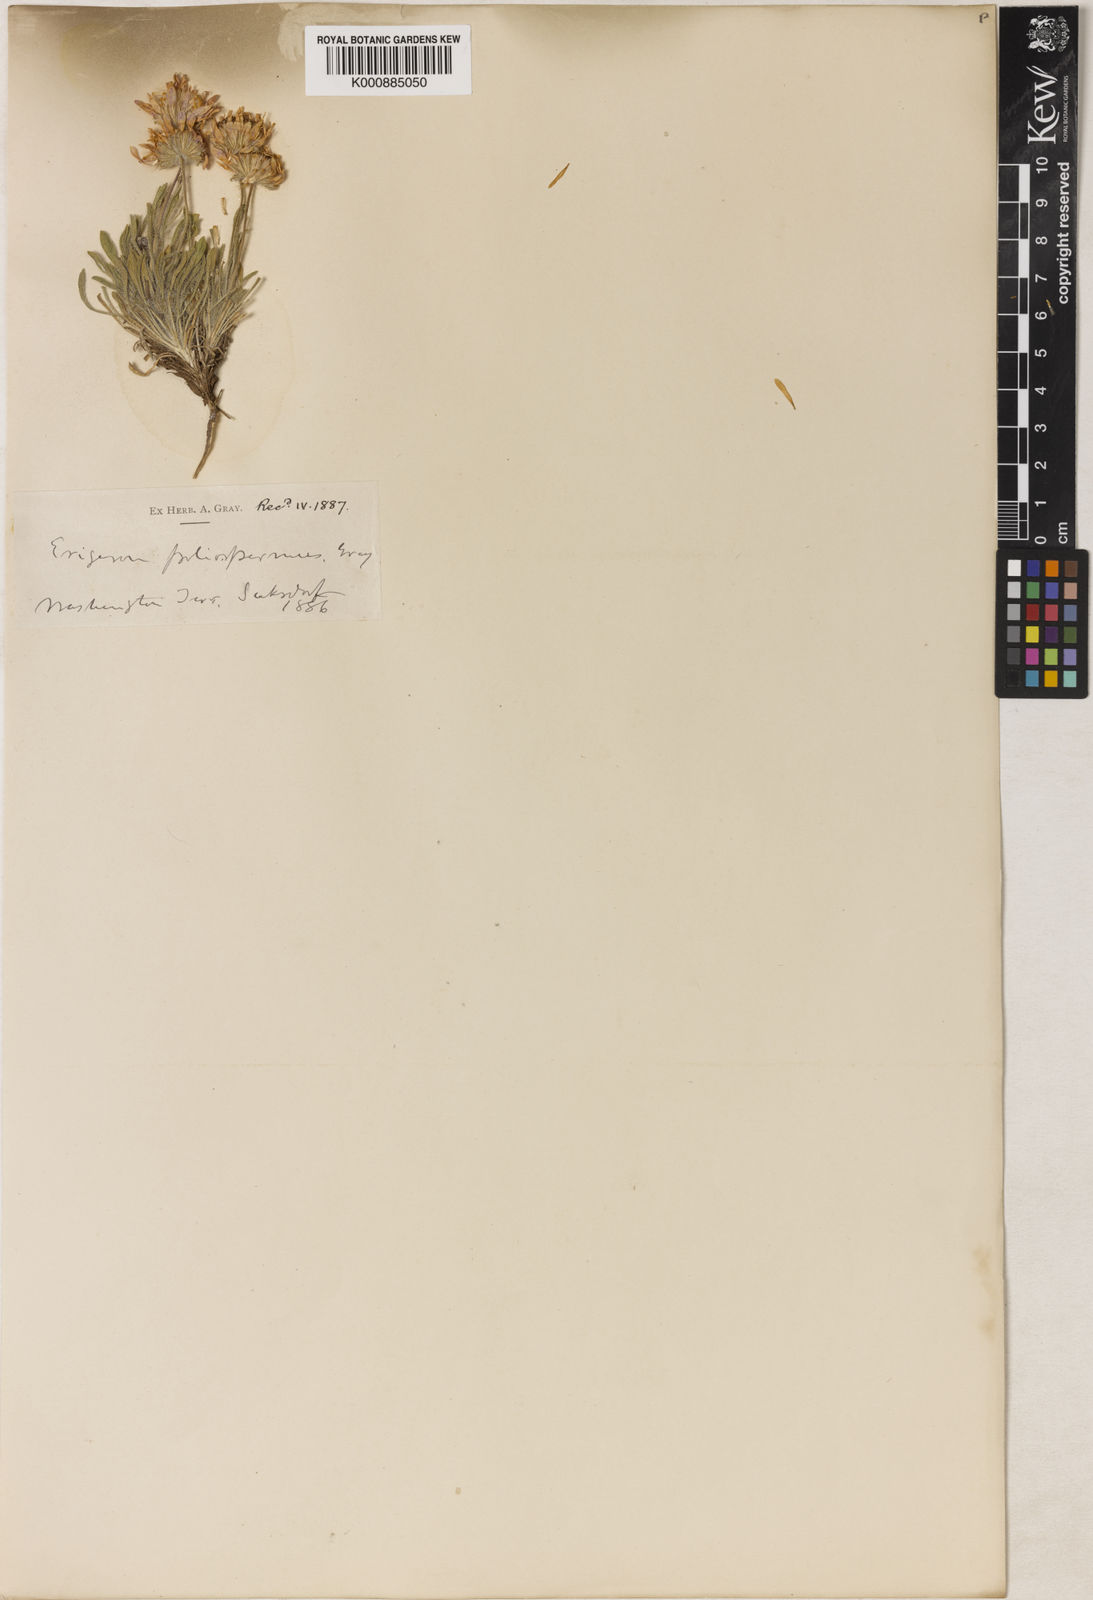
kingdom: Plantae
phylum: Tracheophyta
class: Magnoliopsida
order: Asterales
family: Asteraceae
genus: Erigeron
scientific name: Erigeron
